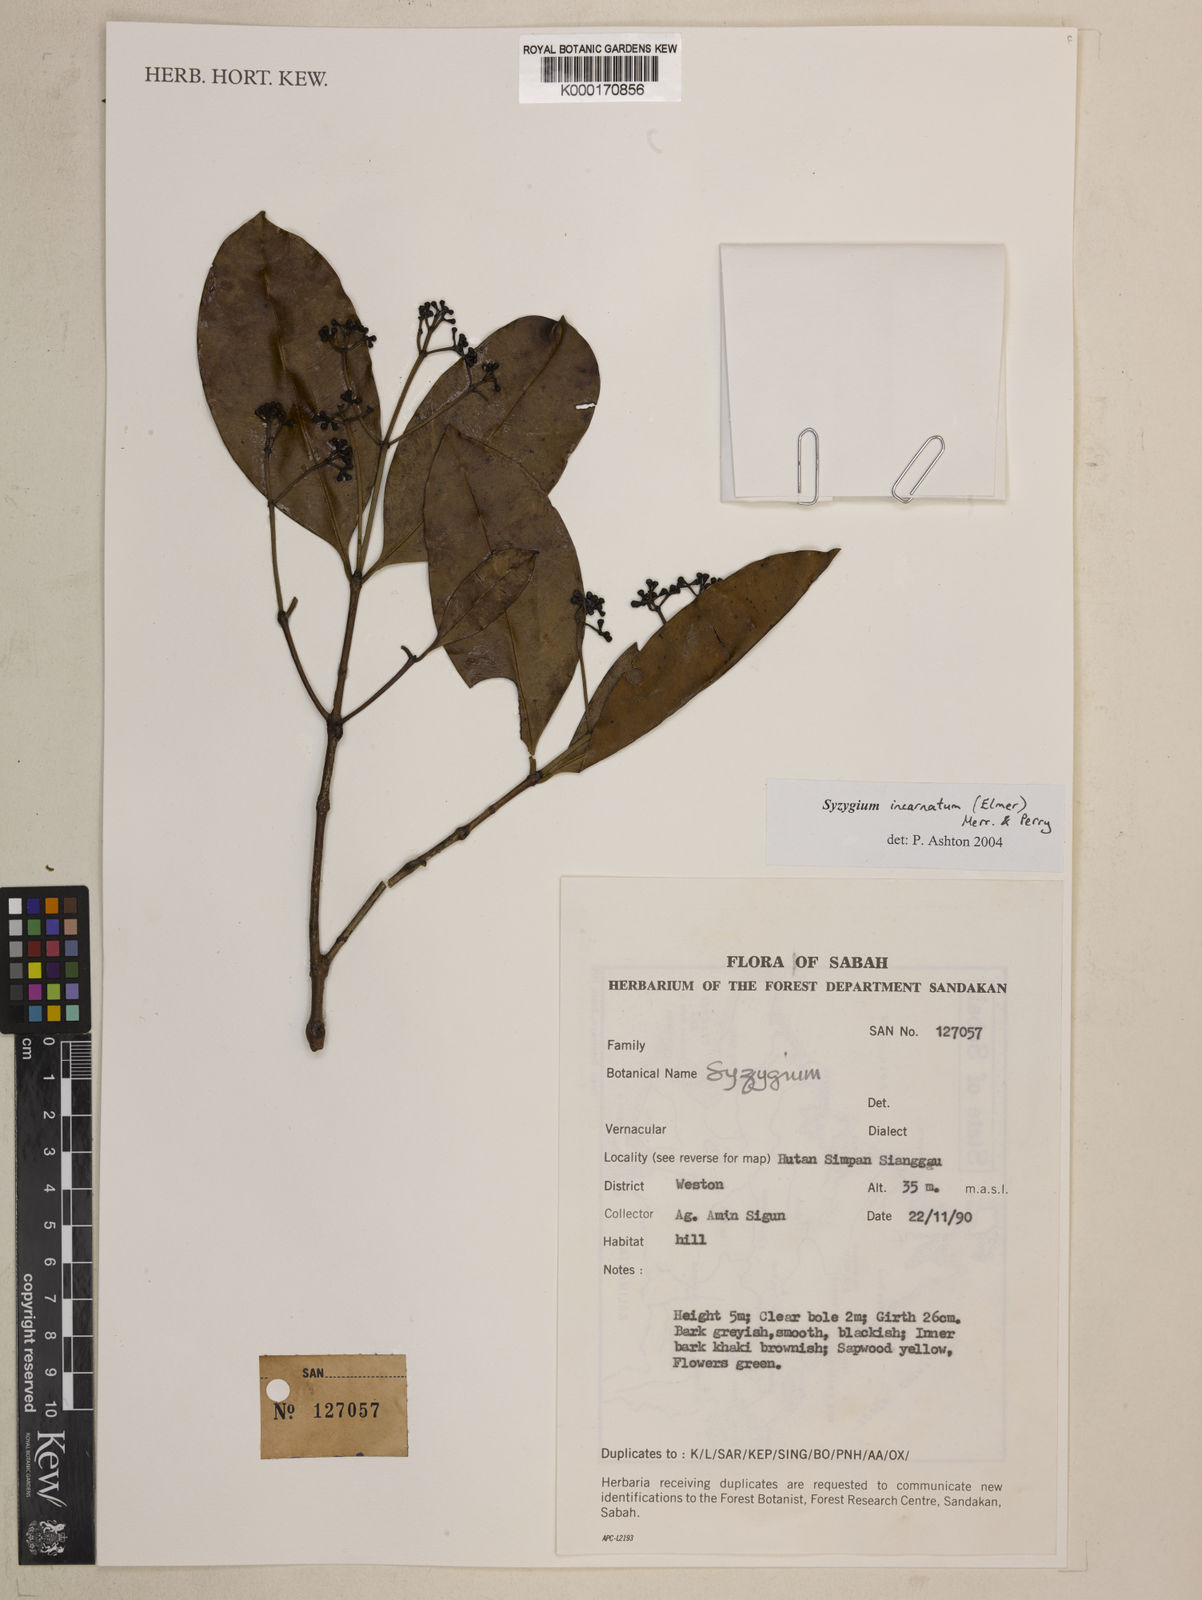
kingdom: Plantae
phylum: Tracheophyta
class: Magnoliopsida
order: Myrtales
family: Myrtaceae
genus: Syzygium
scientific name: Syzygium incarnatum
